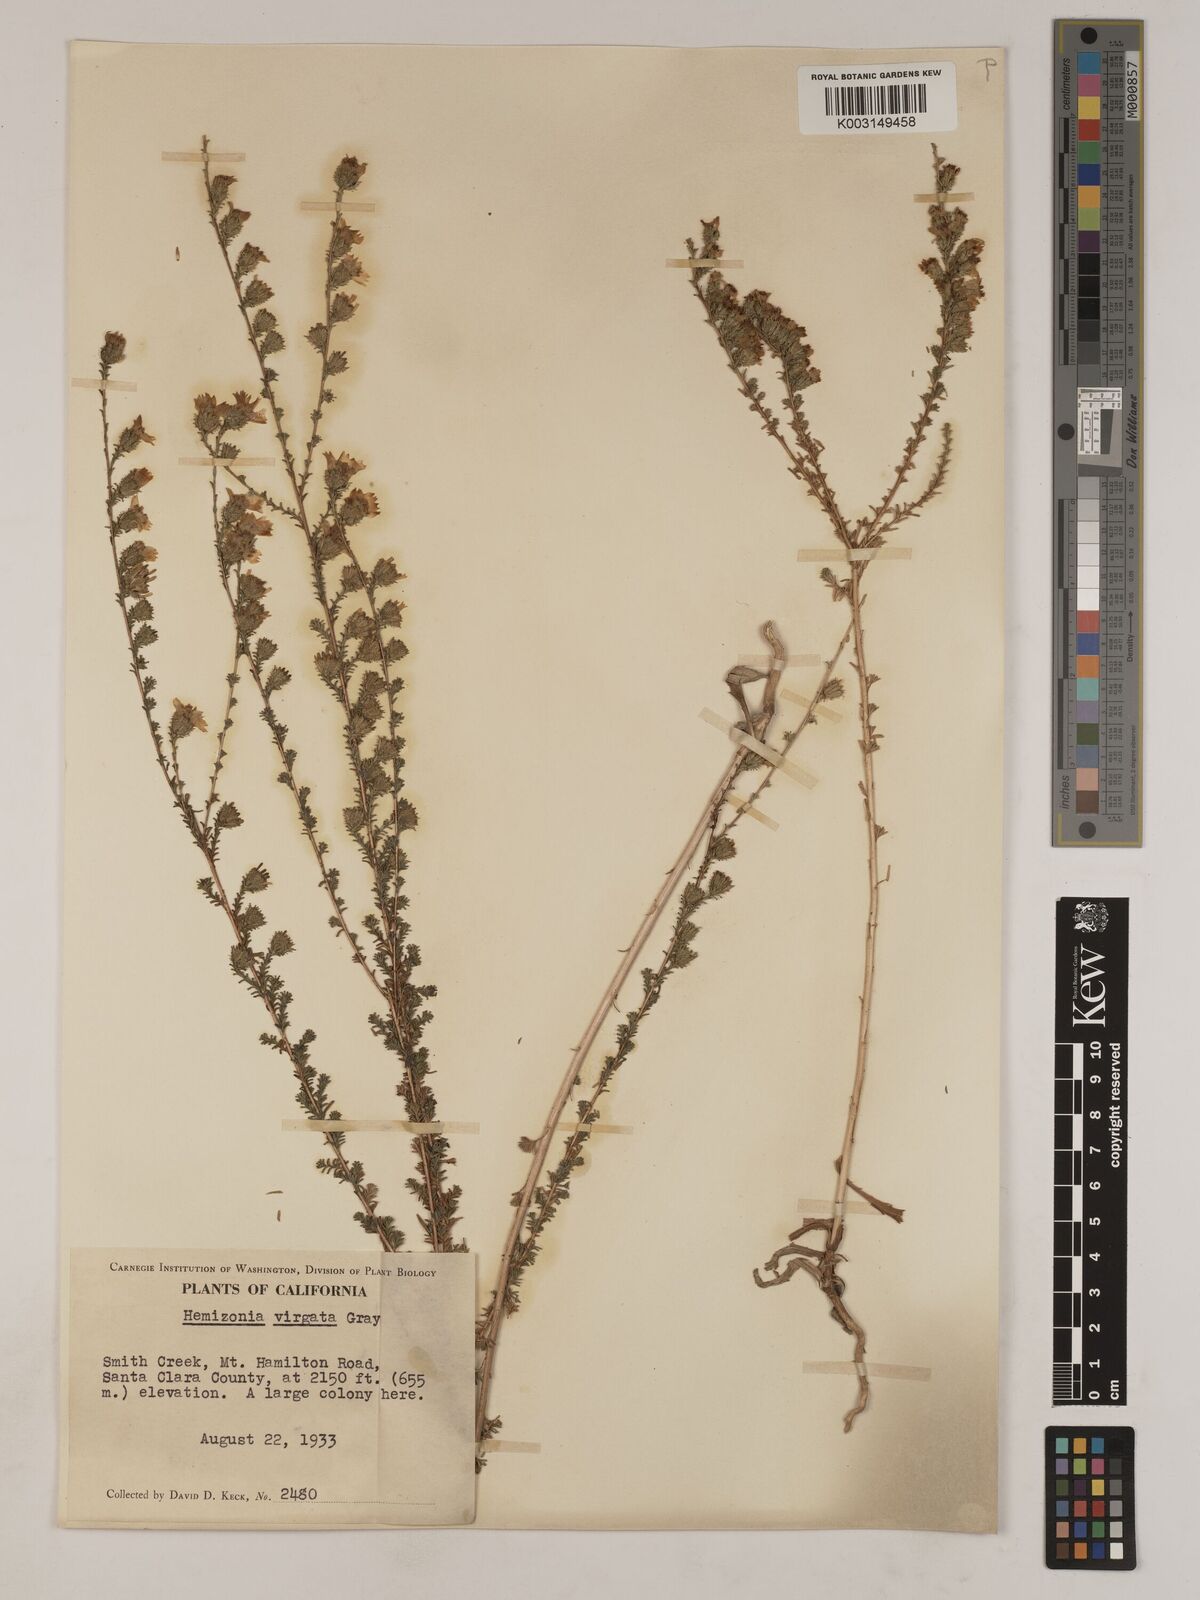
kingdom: Plantae
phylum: Tracheophyta
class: Magnoliopsida
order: Asterales
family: Asteraceae
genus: Holocarpha
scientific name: Holocarpha virgata
